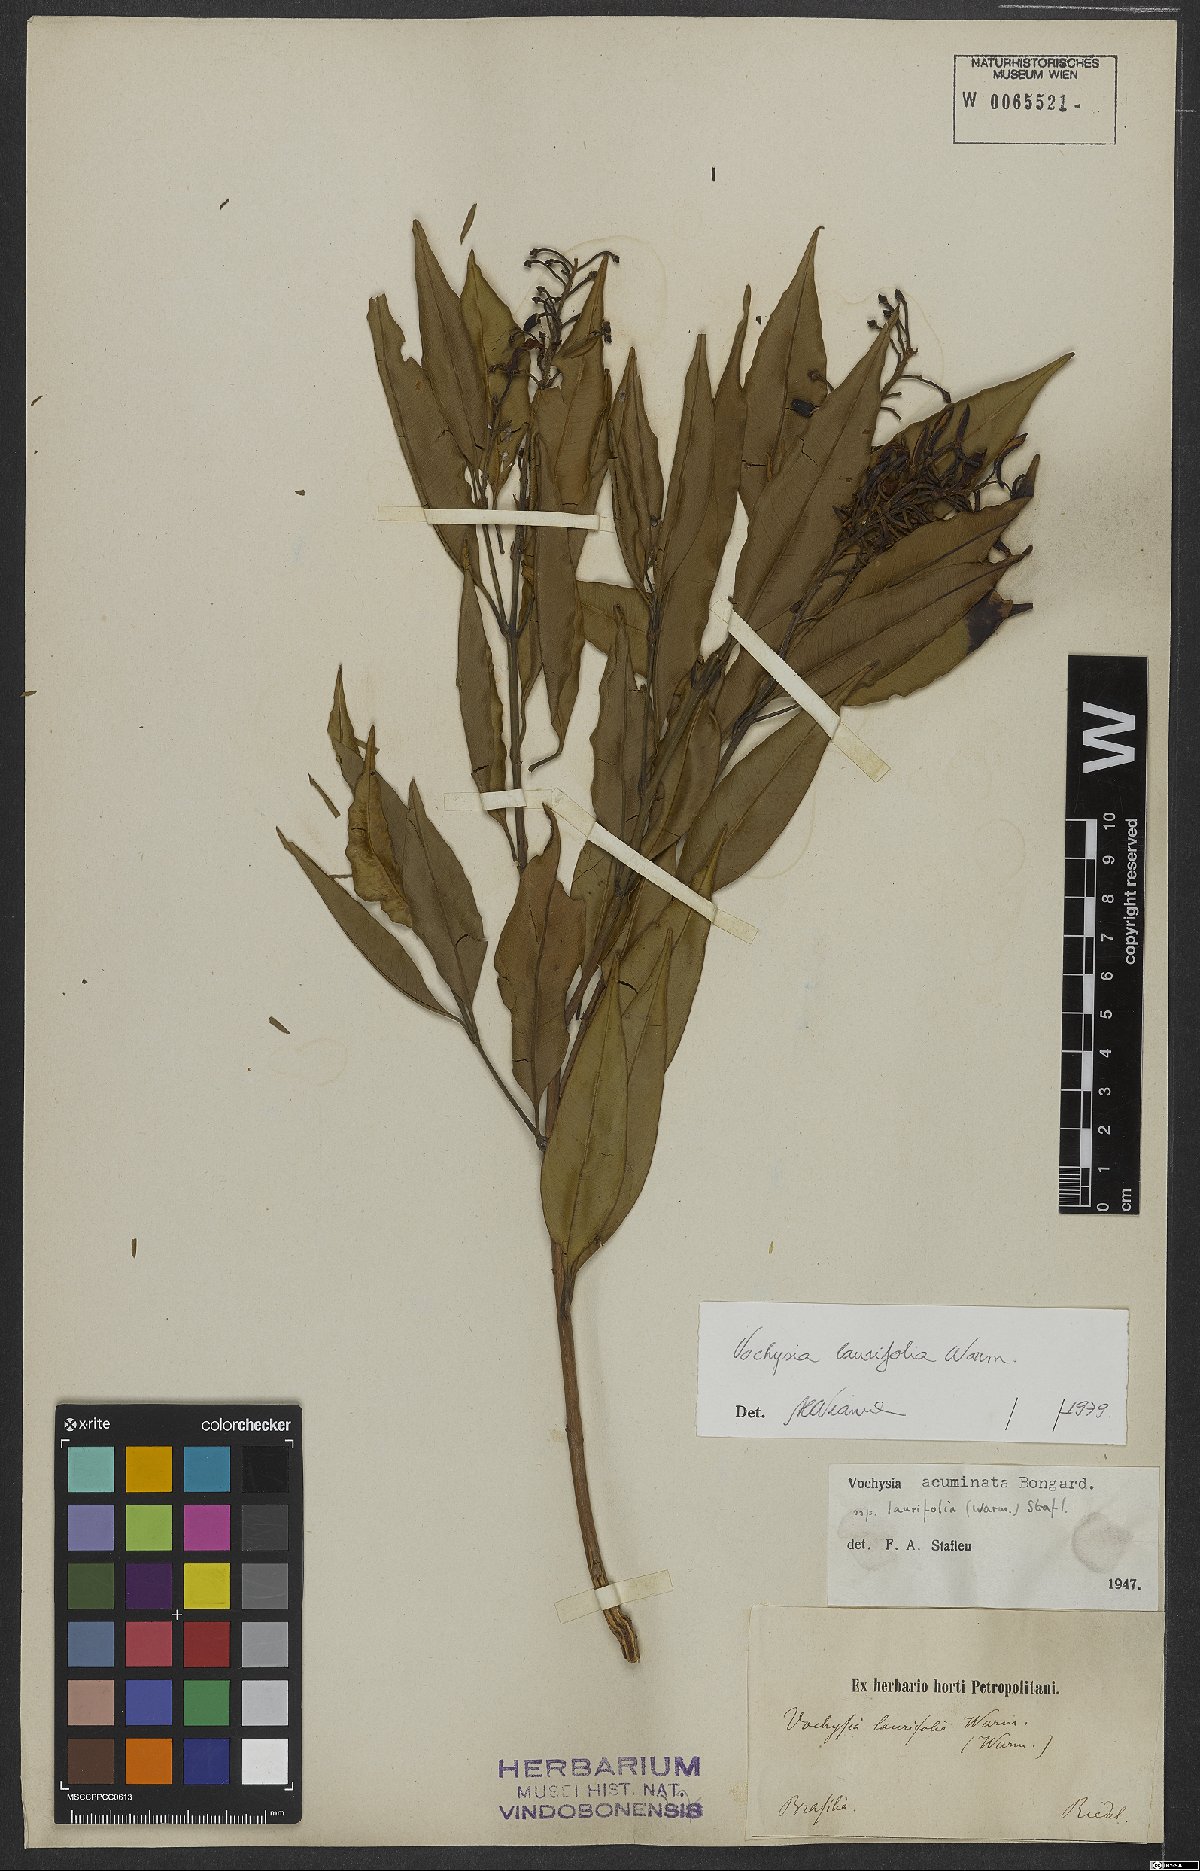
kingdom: Plantae
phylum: Tracheophyta
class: Magnoliopsida
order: Myrtales
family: Vochysiaceae
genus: Vochysia
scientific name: Vochysia laurifolia
